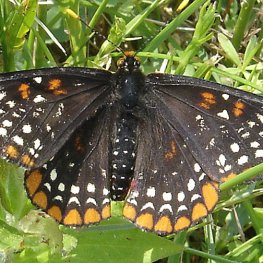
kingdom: Animalia
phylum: Arthropoda
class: Insecta
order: Lepidoptera
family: Nymphalidae
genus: Euphydryas
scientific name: Euphydryas phaeton
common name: Baltimore Checkerspot
